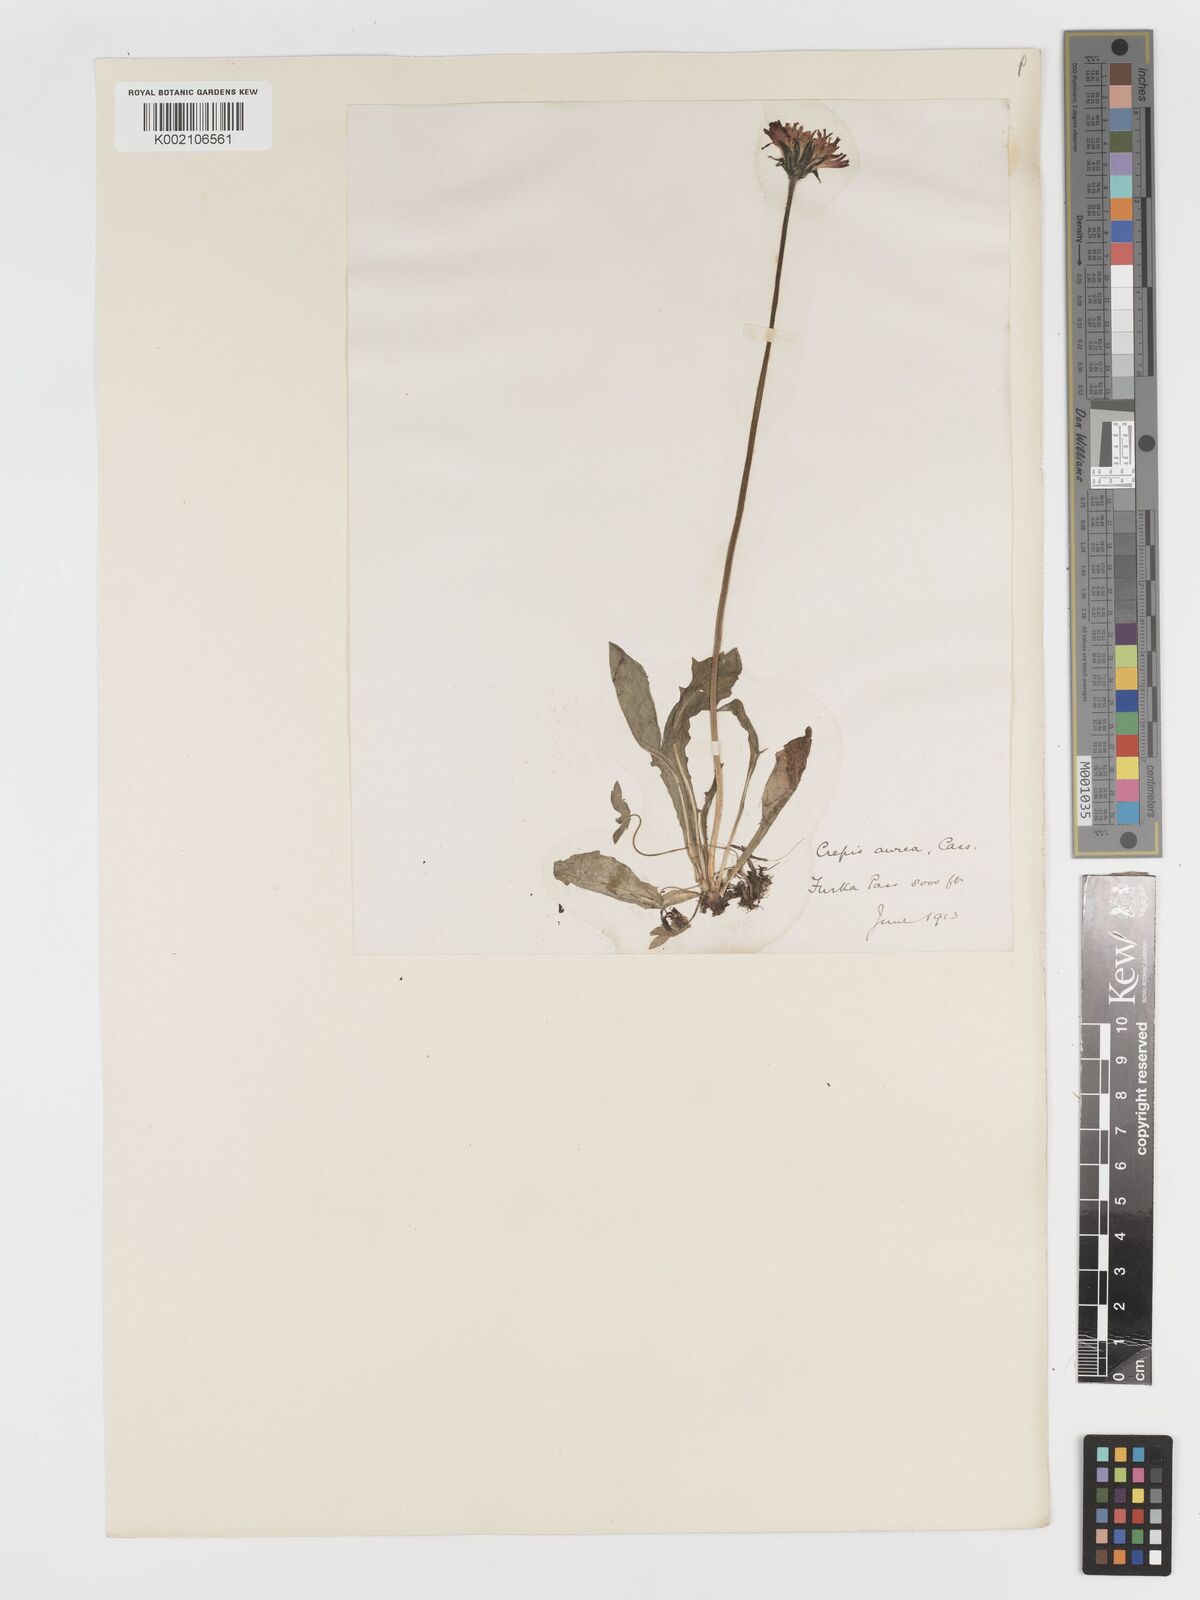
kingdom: Plantae
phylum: Tracheophyta
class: Magnoliopsida
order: Asterales
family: Asteraceae
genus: Crepis
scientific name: Crepis aurea
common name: Golden hawk's-beard
